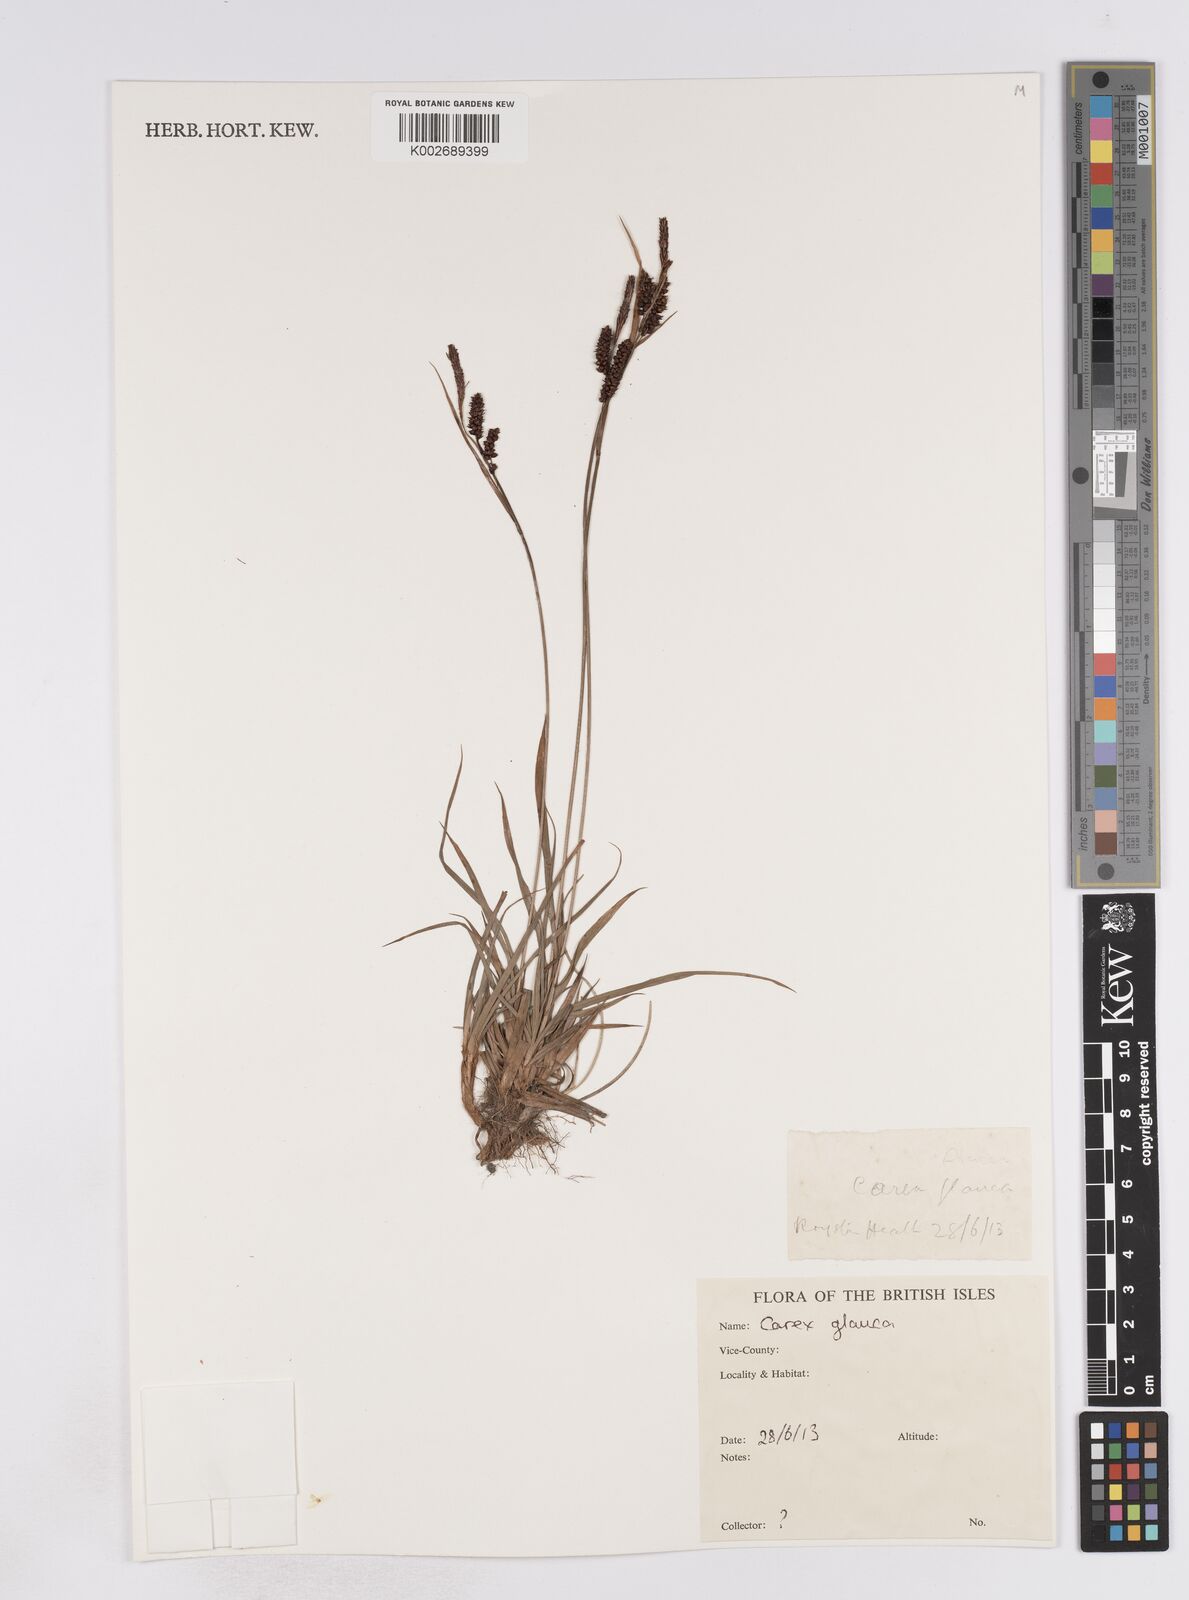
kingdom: Plantae
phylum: Tracheophyta
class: Liliopsida
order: Poales
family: Cyperaceae
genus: Carex
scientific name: Carex flacca
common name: Glaucous sedge
